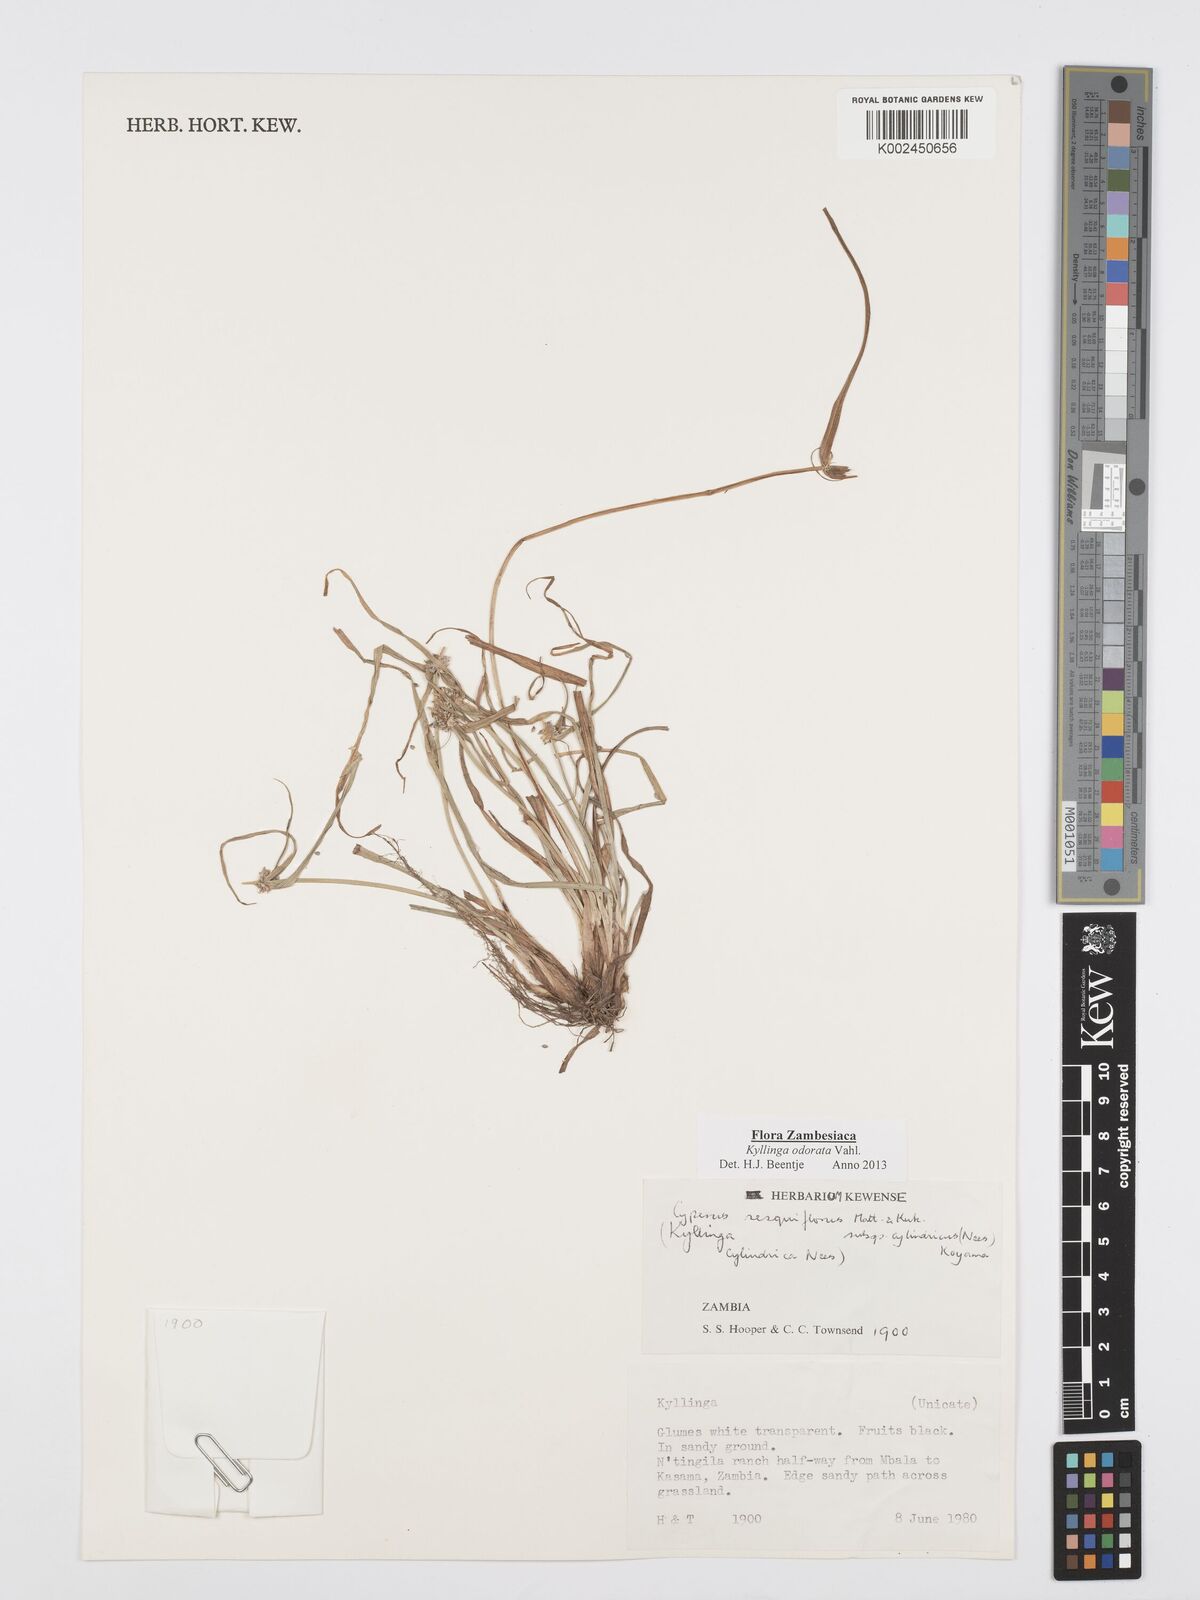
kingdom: Plantae
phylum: Tracheophyta
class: Liliopsida
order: Poales
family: Cyperaceae
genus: Cyperus
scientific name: Cyperus
